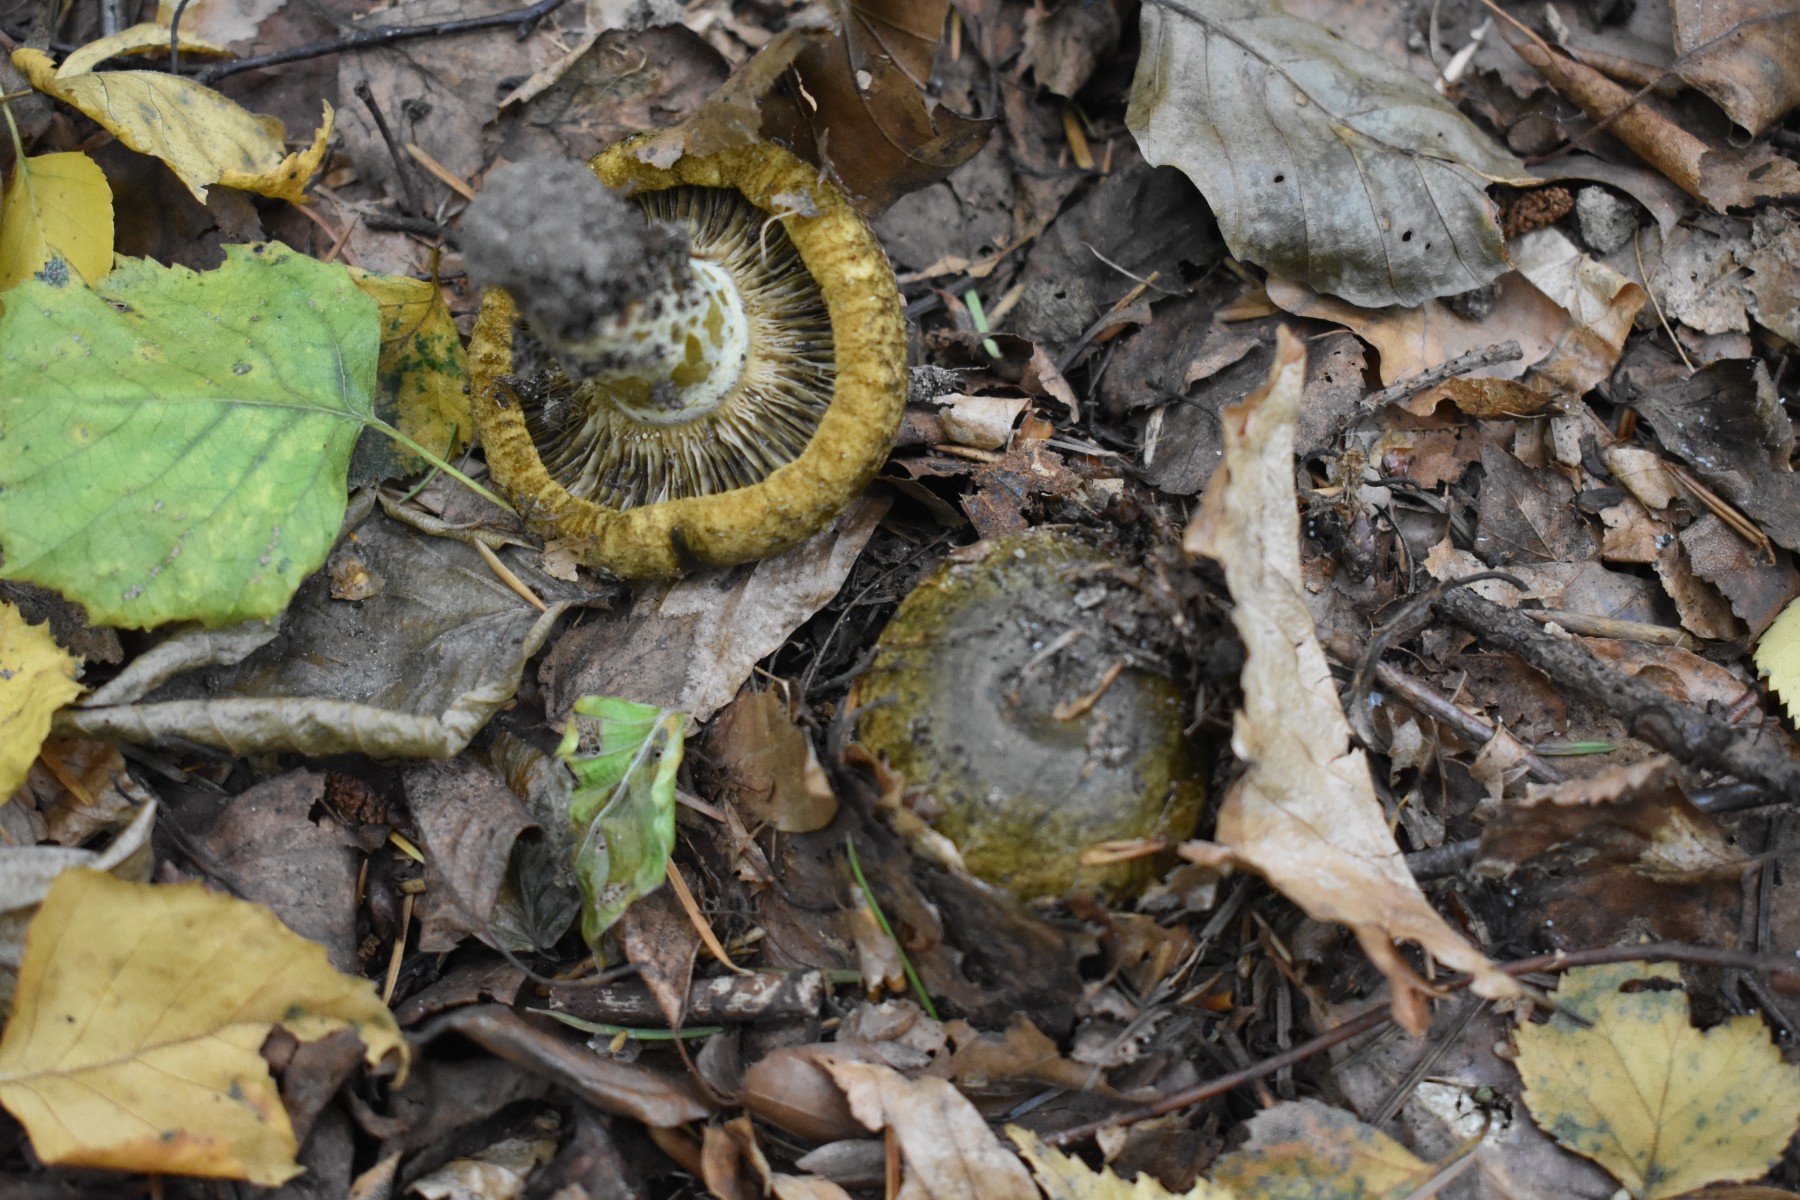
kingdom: Fungi
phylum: Basidiomycota
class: Agaricomycetes
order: Russulales
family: Russulaceae
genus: Lactarius
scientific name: Lactarius necator
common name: manddraber-mælkehat
